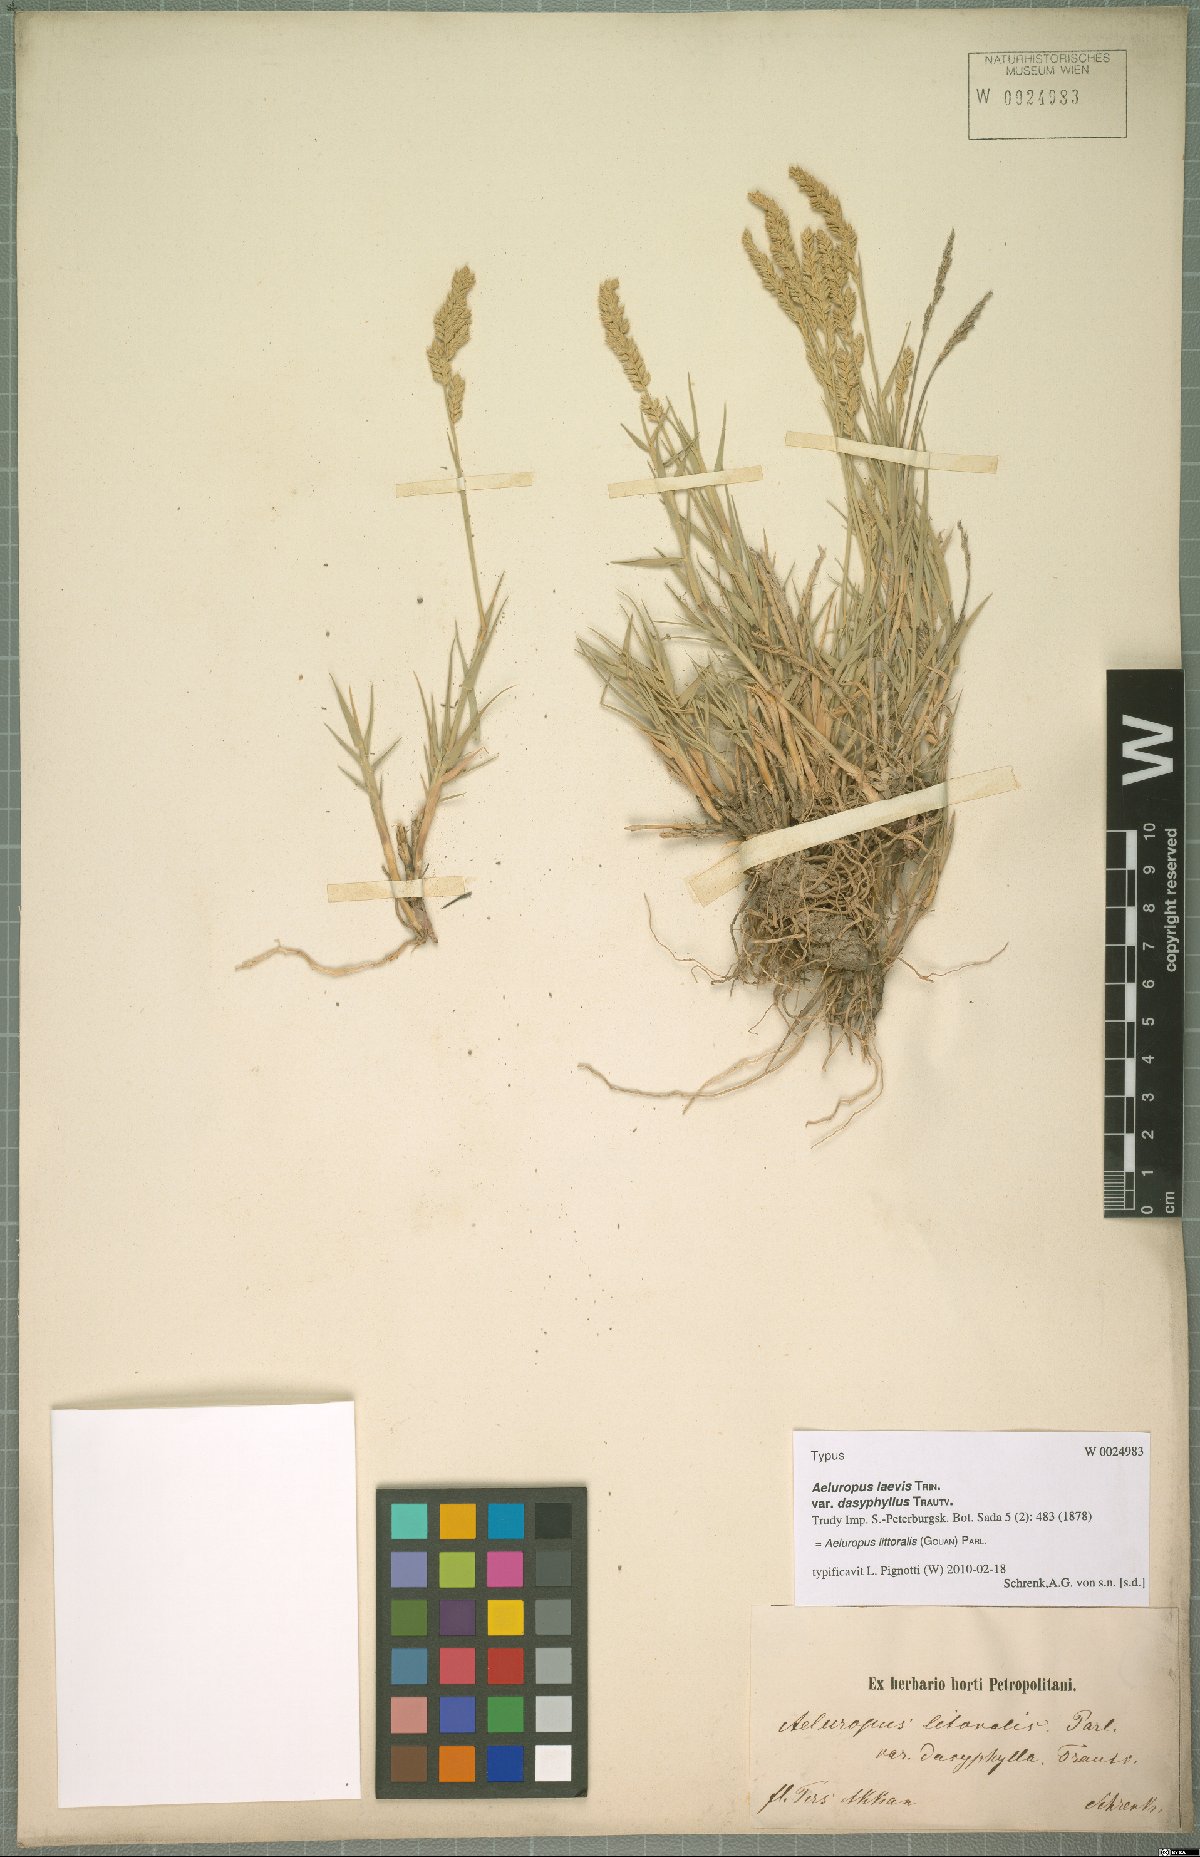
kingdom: Plantae
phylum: Tracheophyta
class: Liliopsida
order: Poales
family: Poaceae
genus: Aeluropus
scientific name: Aeluropus littoralis
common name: Indian walnut
